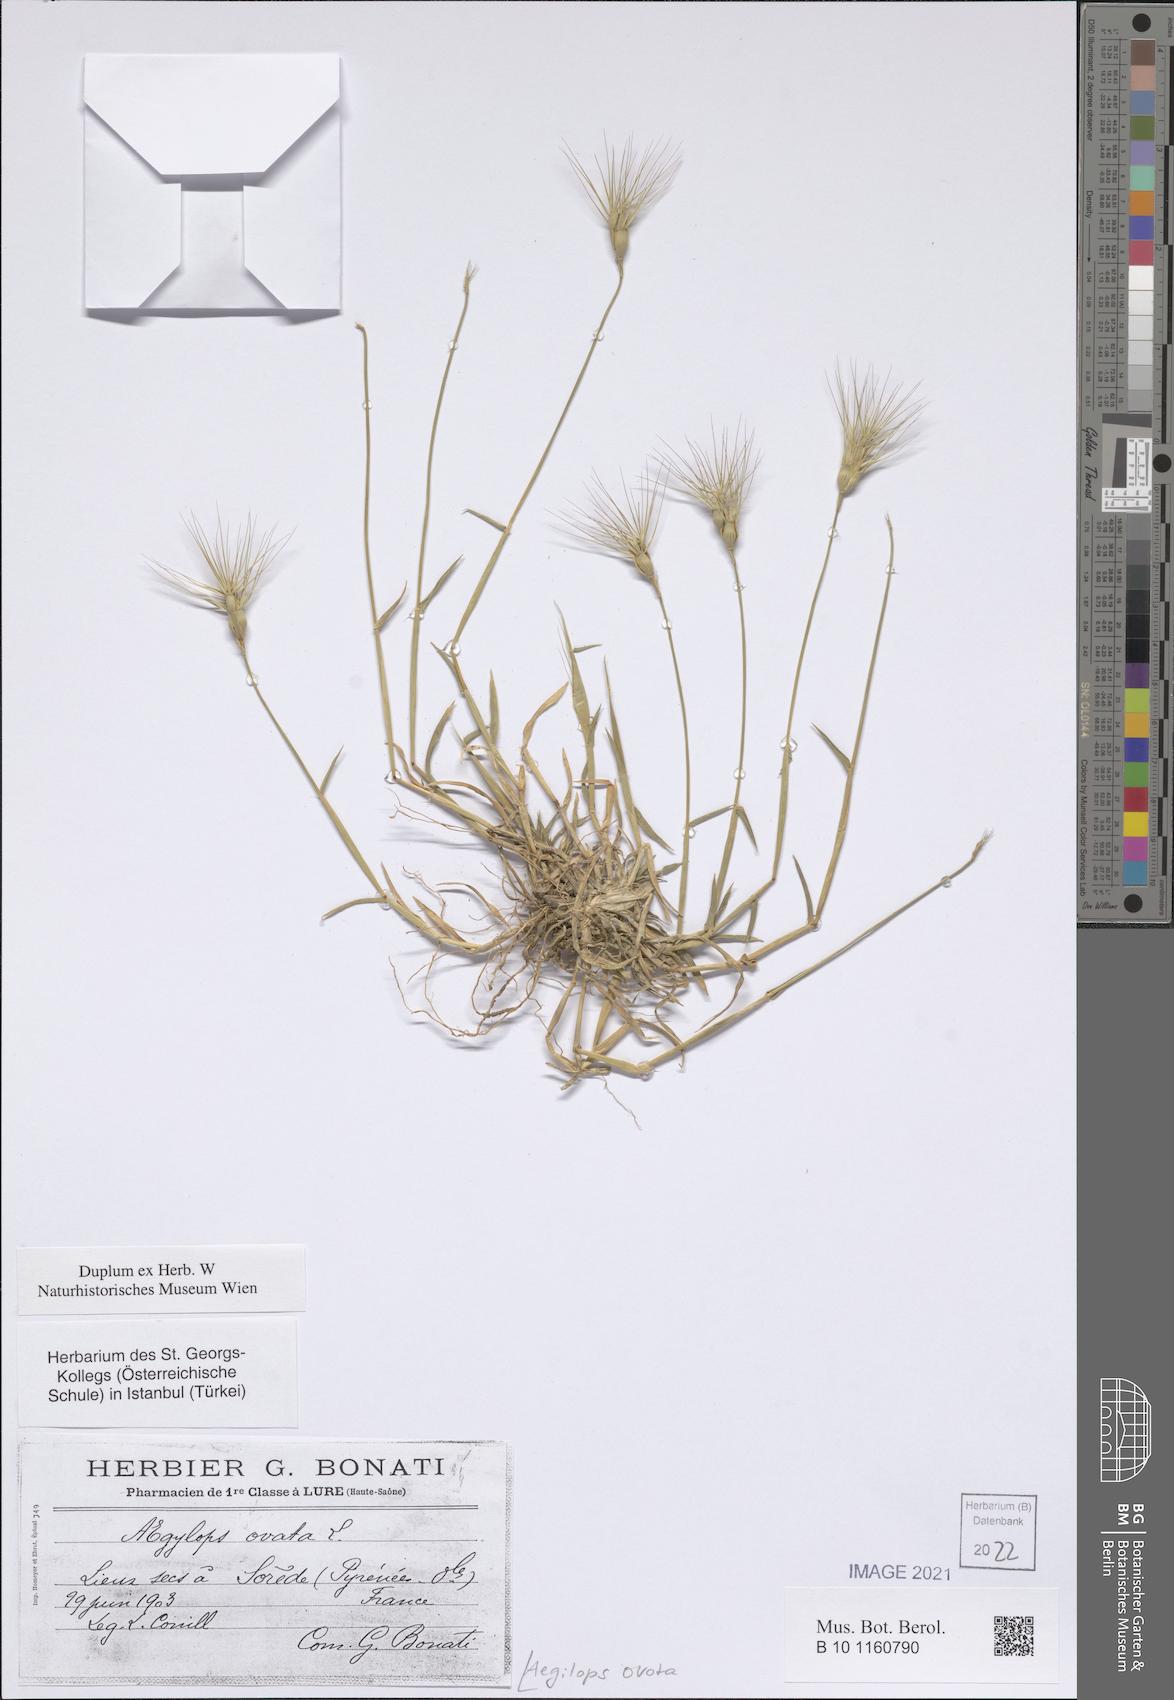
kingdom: Plantae
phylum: Tracheophyta
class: Liliopsida
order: Poales
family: Poaceae
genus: Aegilops
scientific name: Aegilops neglecta
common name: Three-awn goat grass
